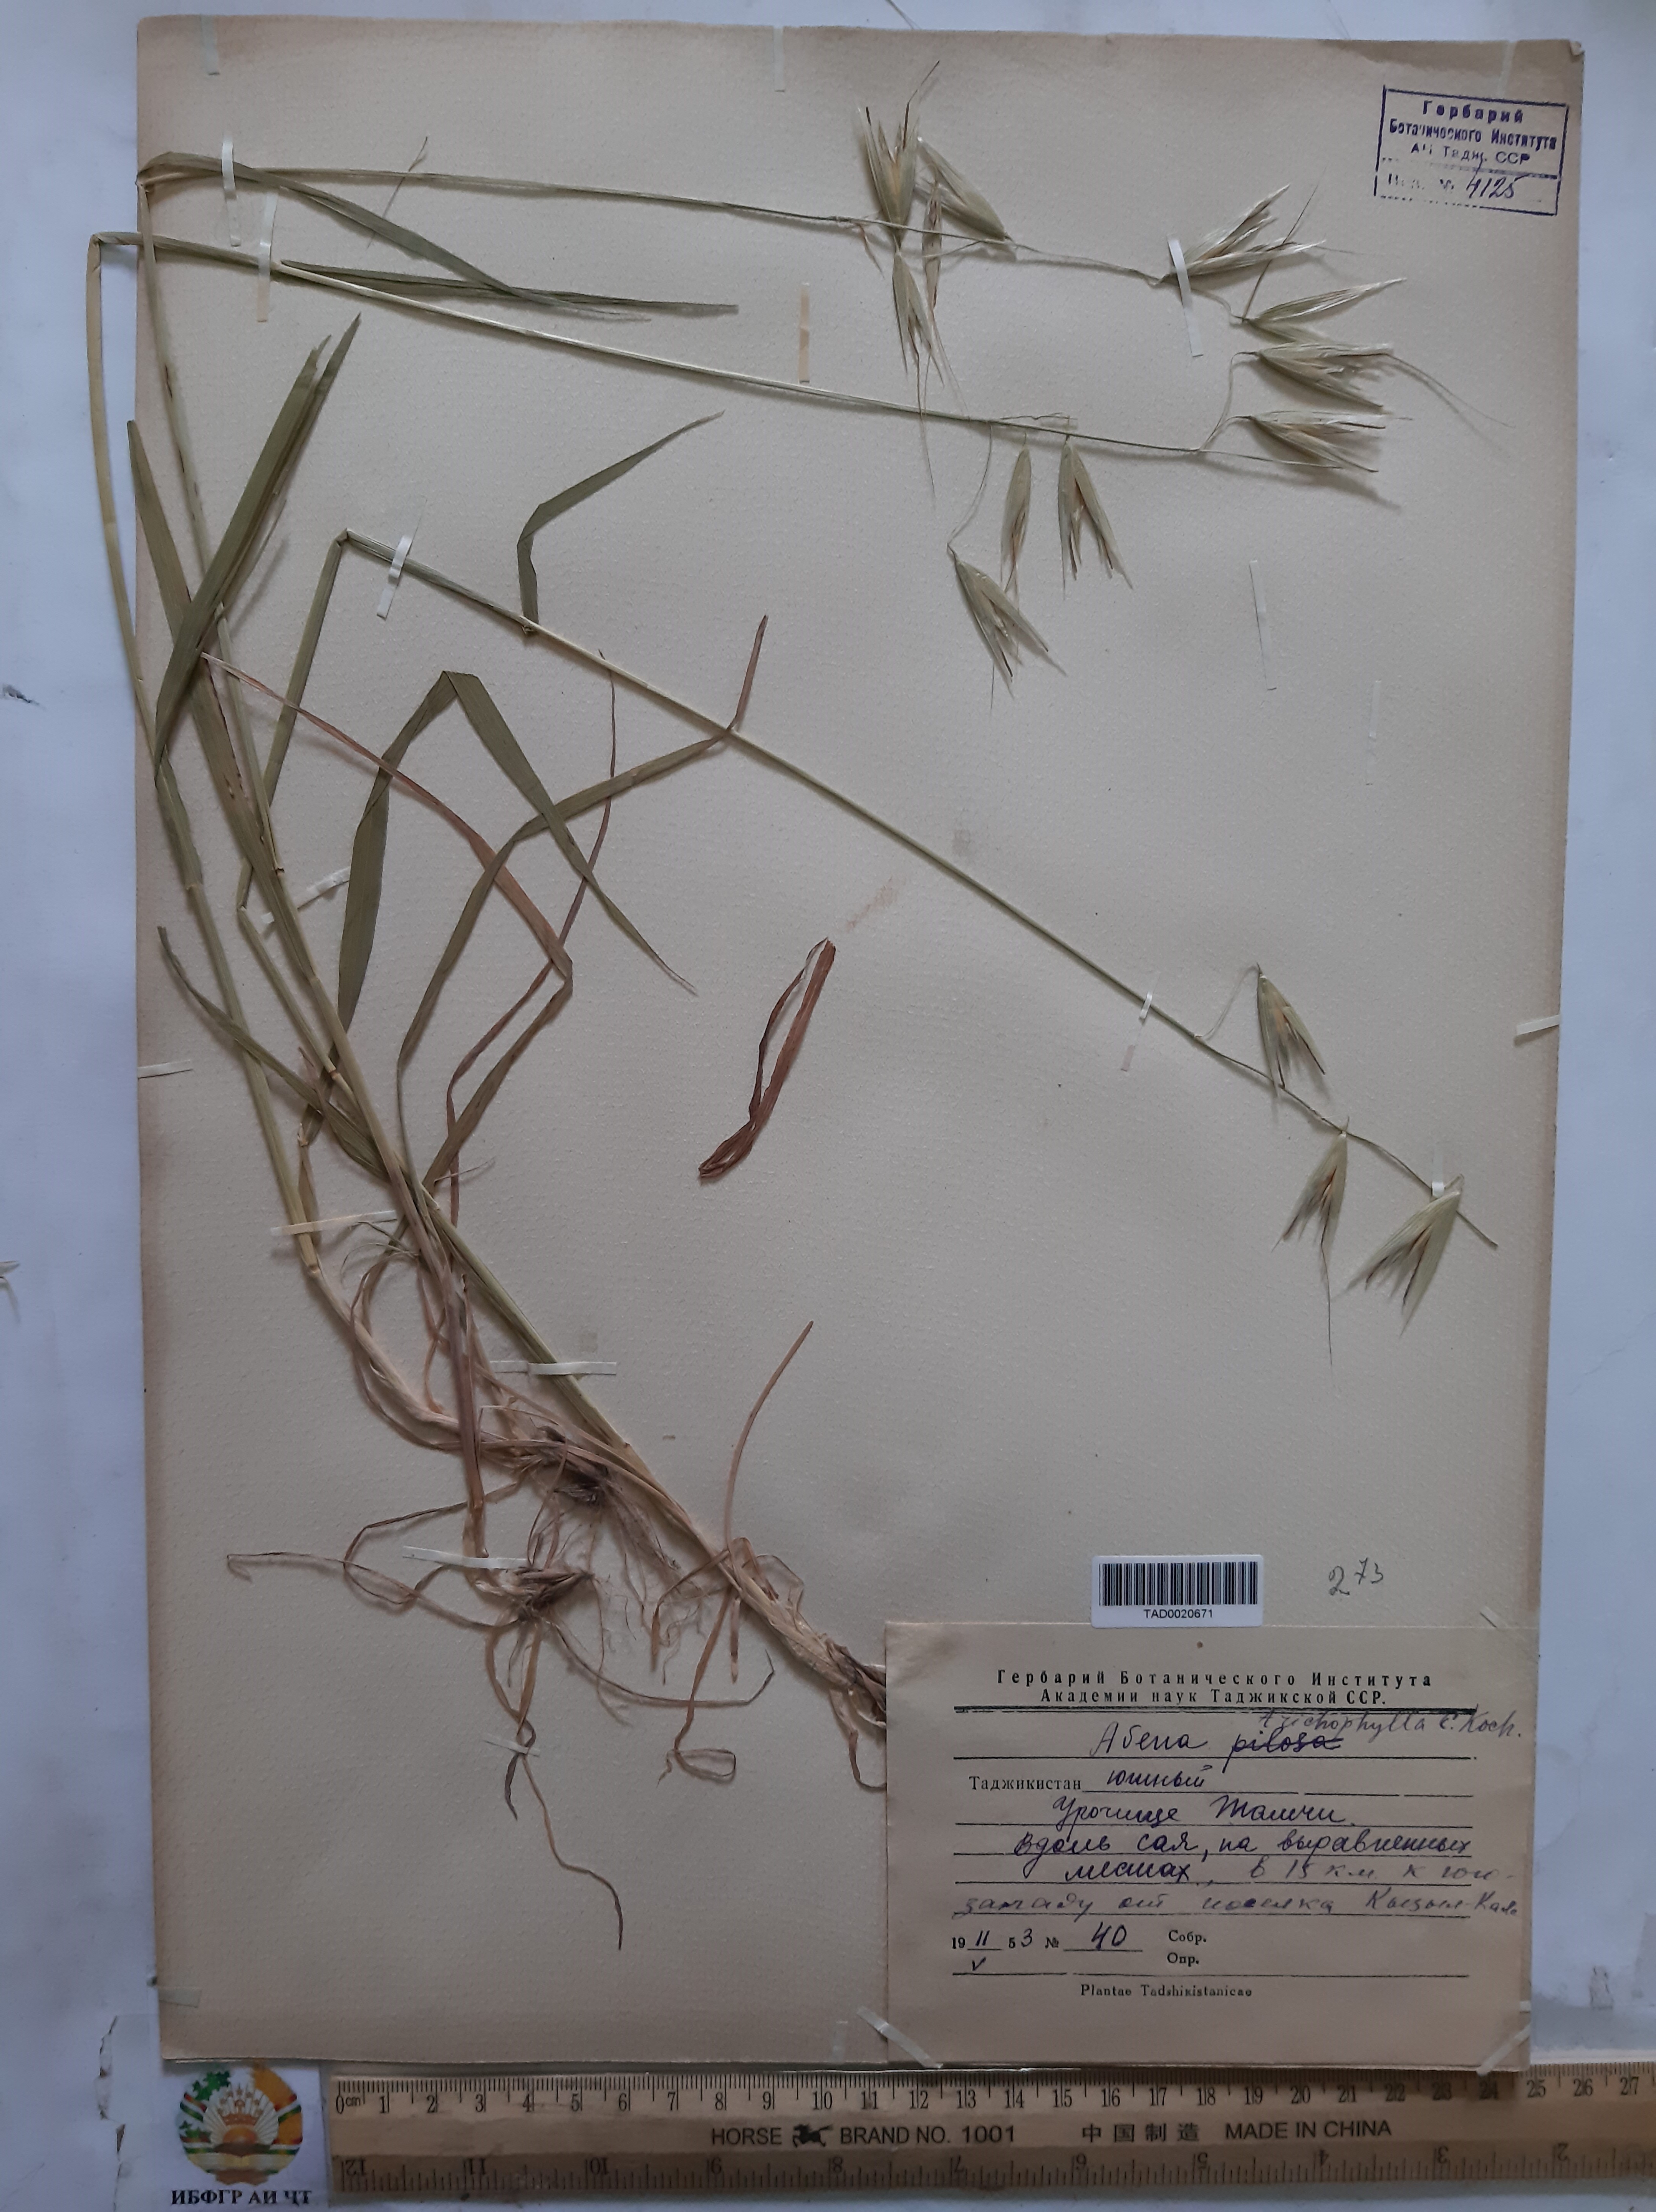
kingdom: Plantae
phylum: Tracheophyta
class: Liliopsida
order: Poales
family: Poaceae
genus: Avena
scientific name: Avena sterilis
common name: Animated oat
